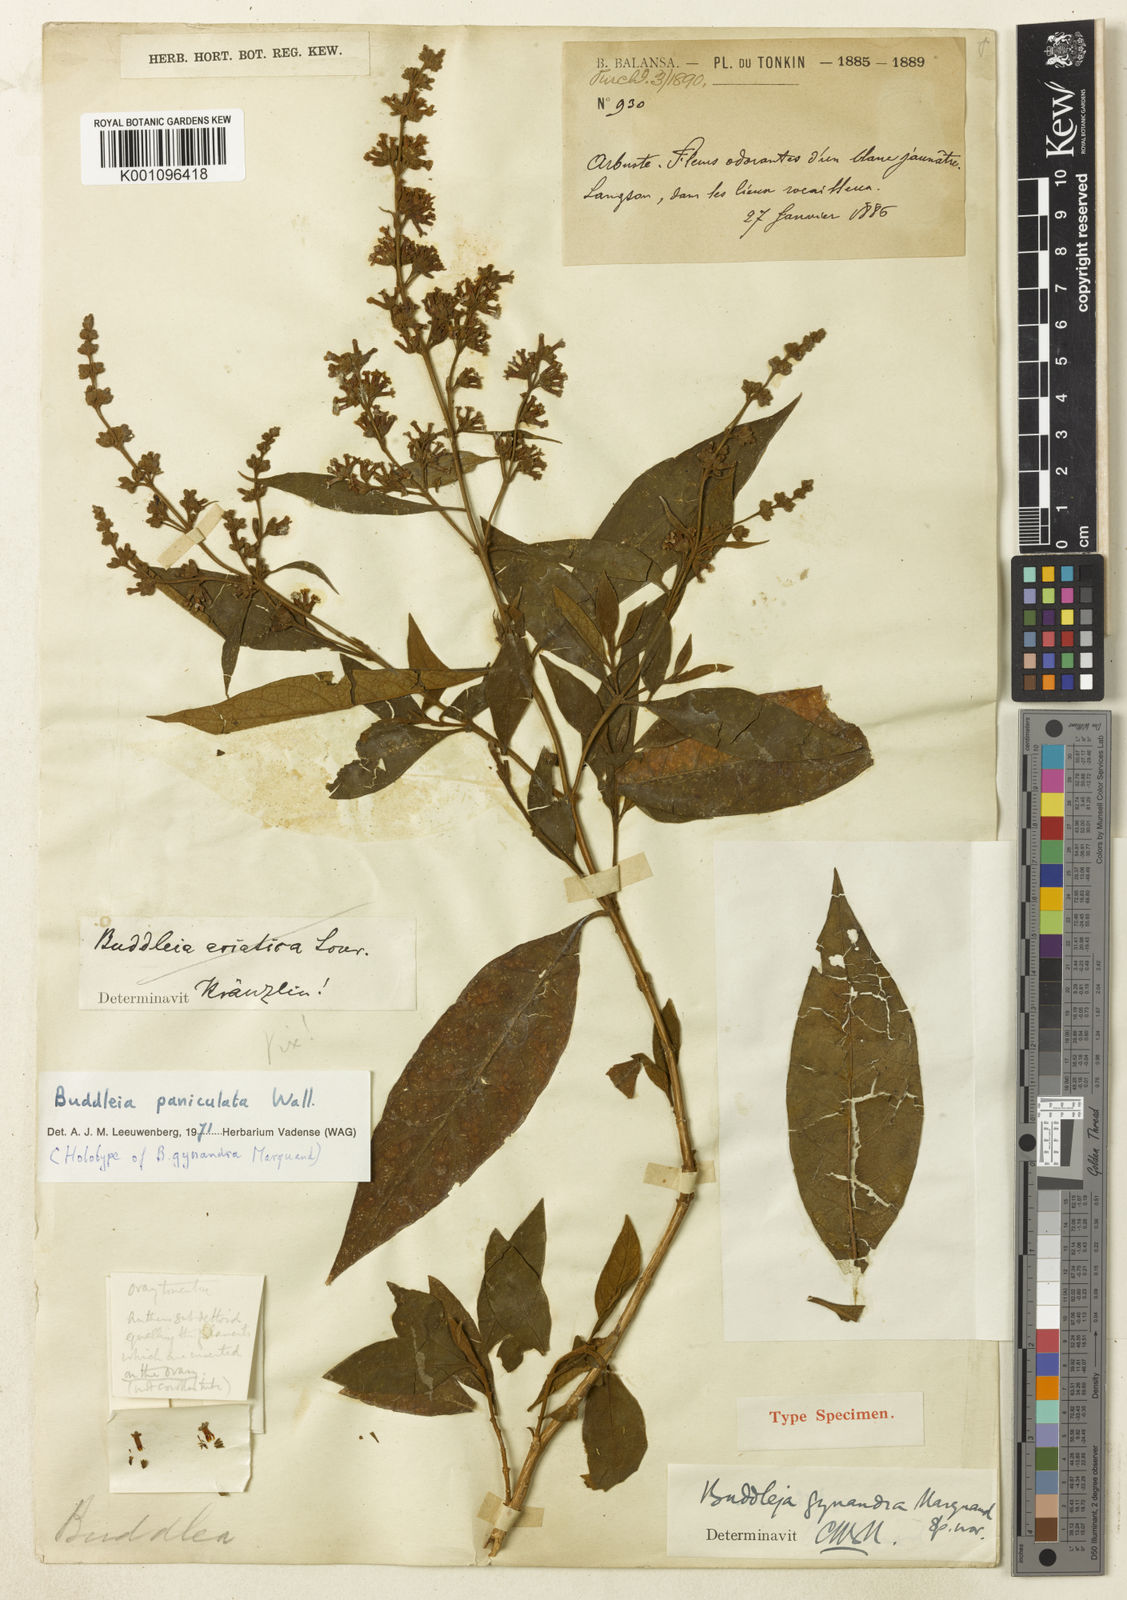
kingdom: Plantae
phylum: Tracheophyta
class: Magnoliopsida
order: Lamiales
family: Scrophulariaceae
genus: Buddleja
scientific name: Buddleja paniculata
